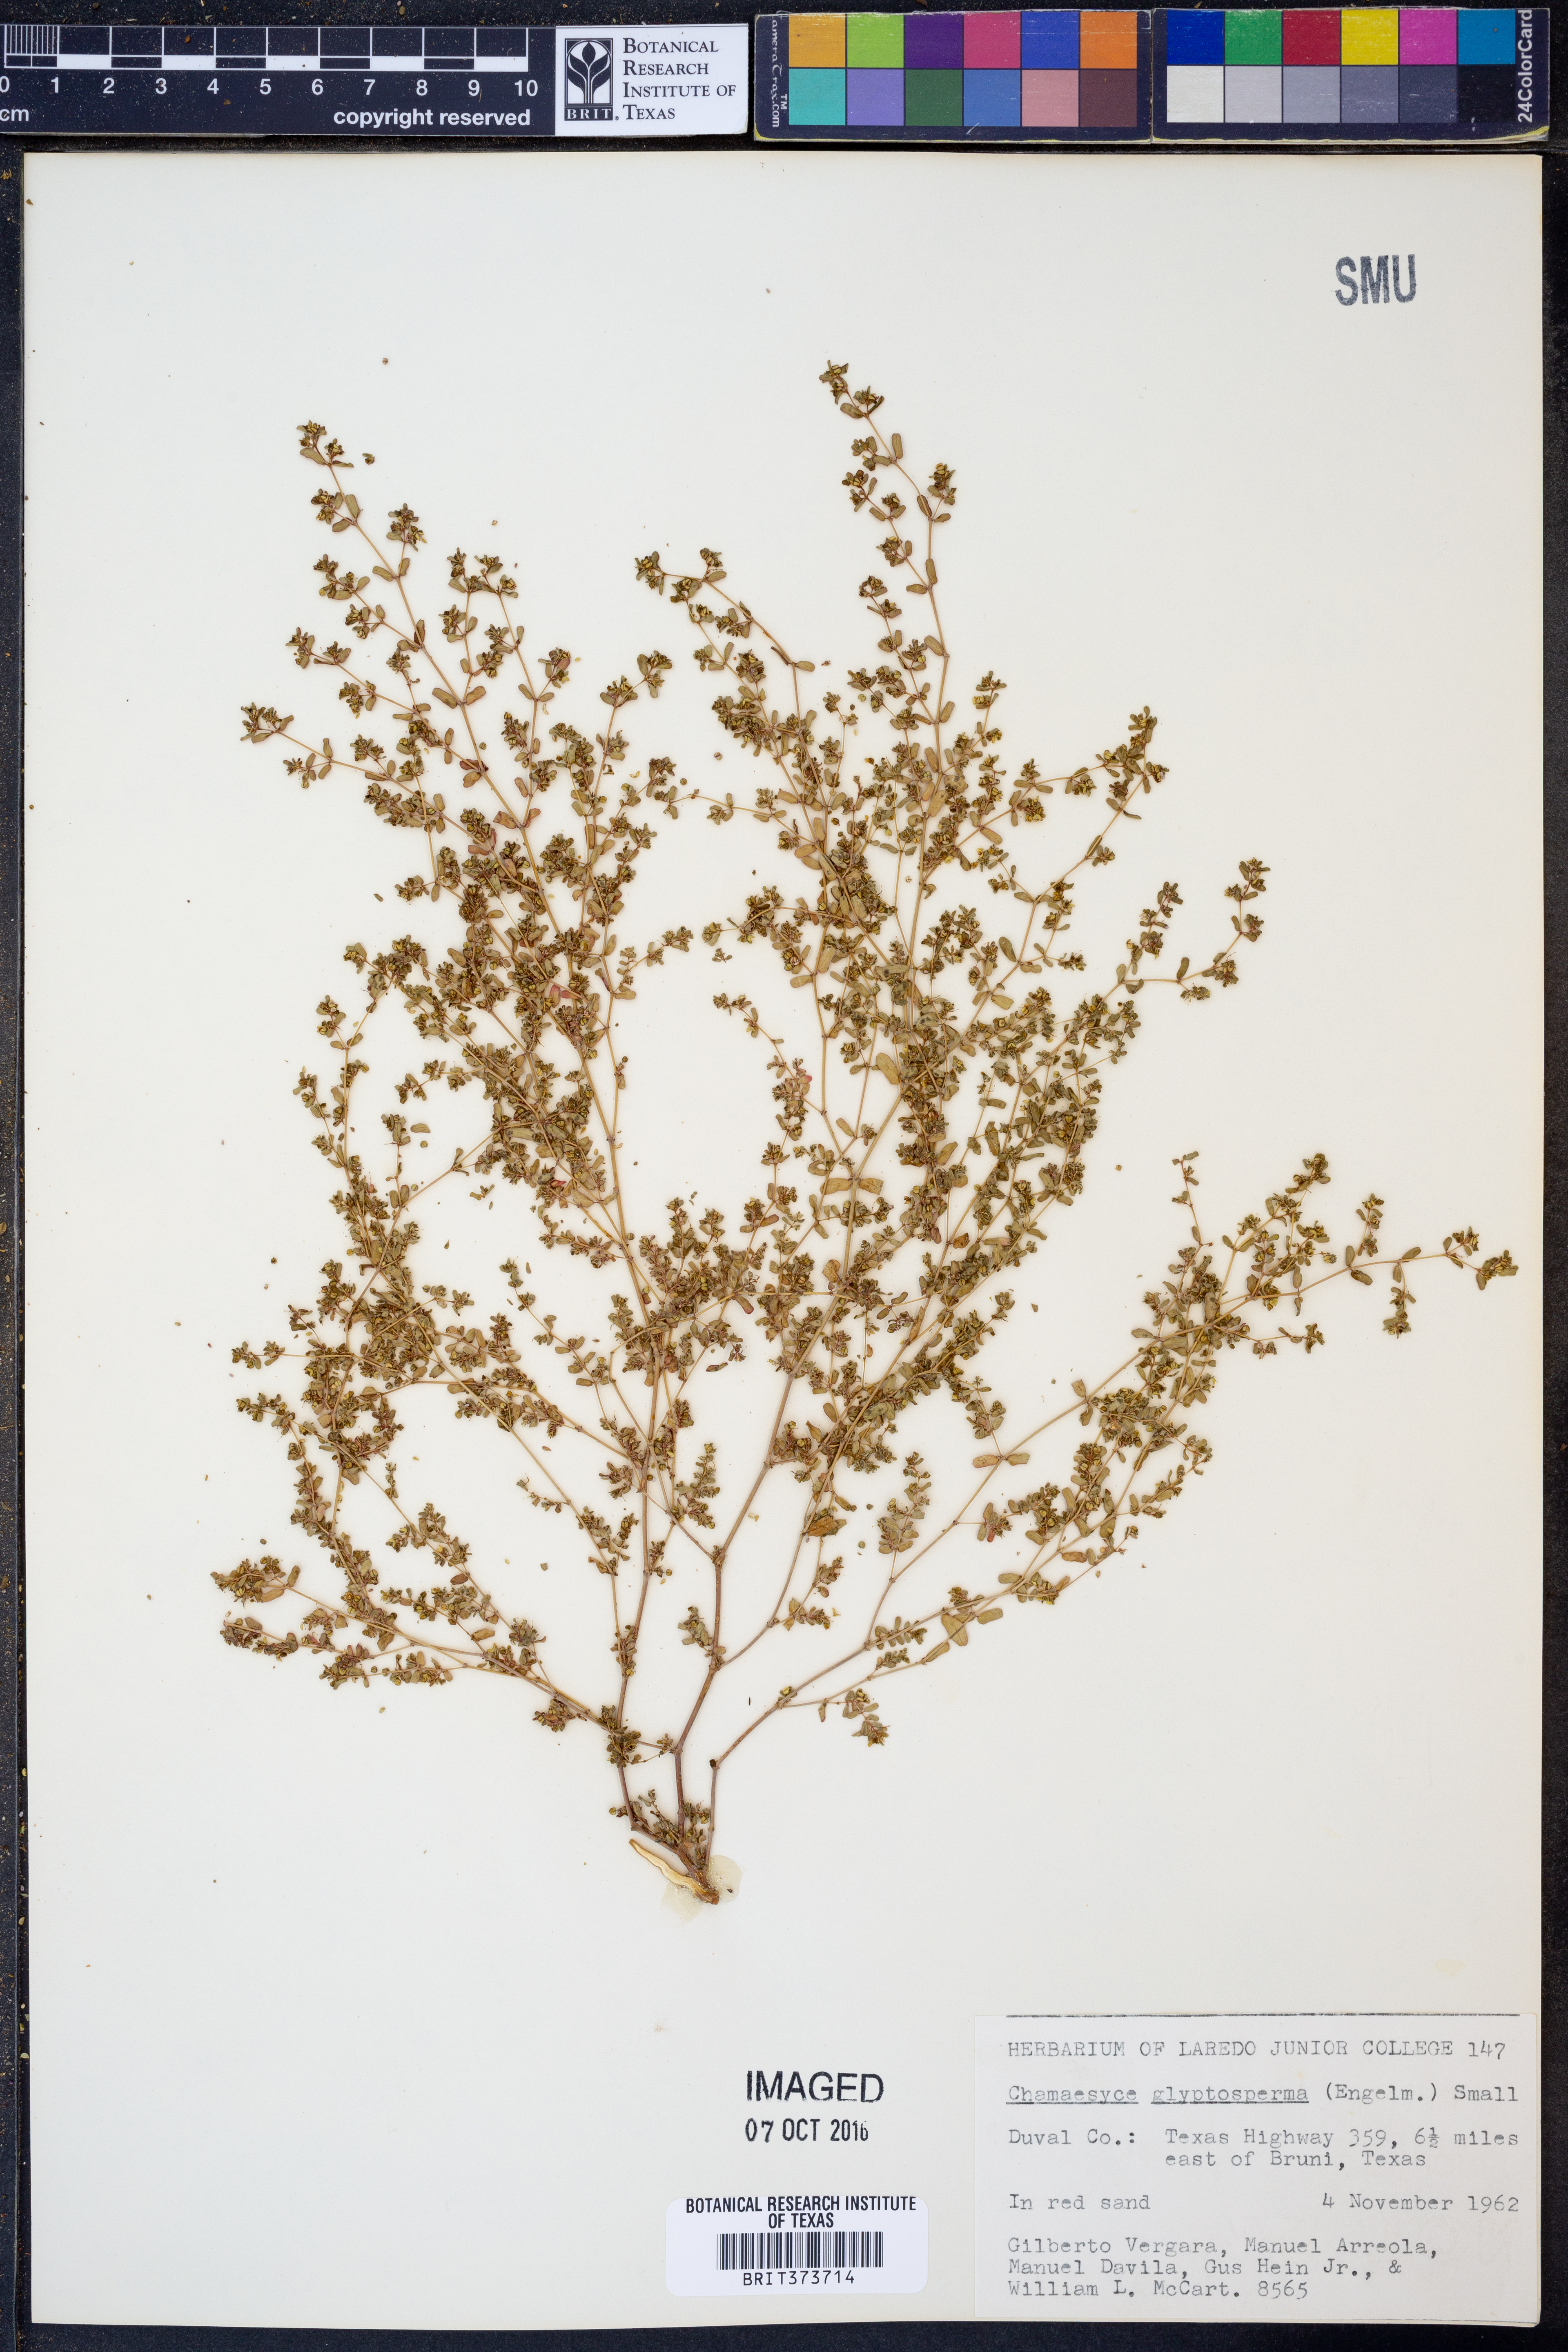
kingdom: Plantae
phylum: Tracheophyta
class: Magnoliopsida
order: Malpighiales
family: Euphorbiaceae
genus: Euphorbia
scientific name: Euphorbia glyptosperma
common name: Corrugate-seeded spurge
